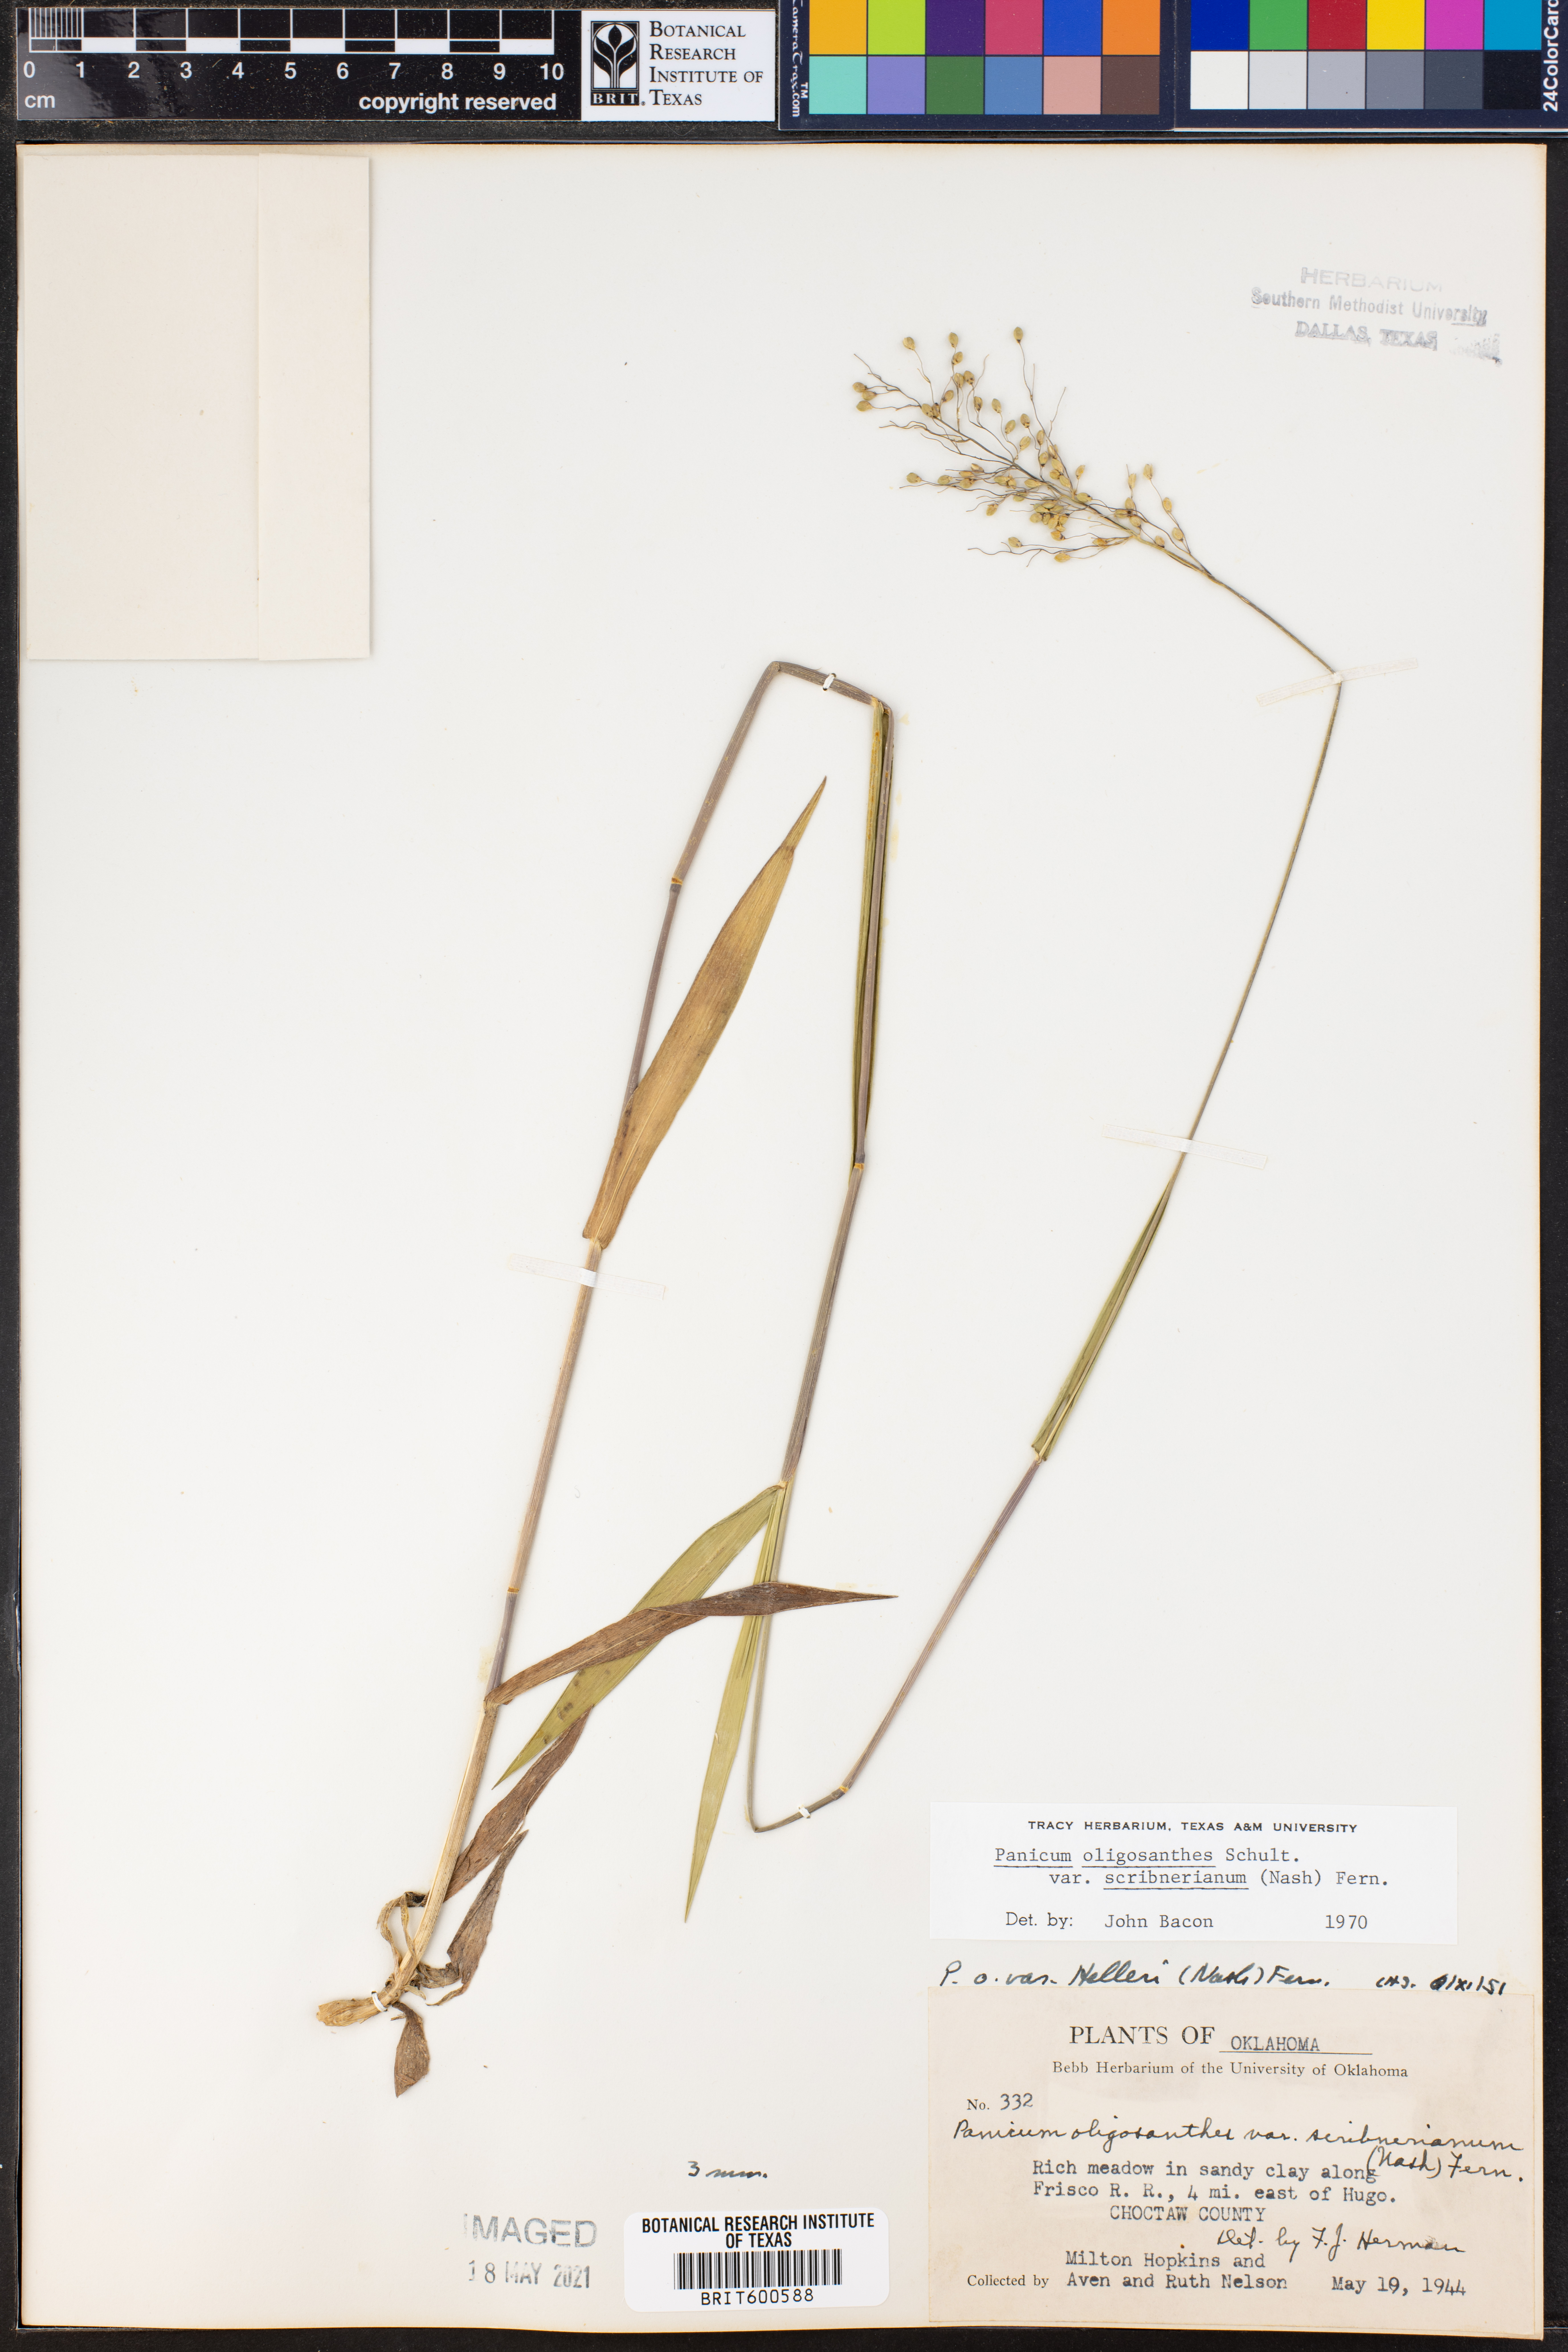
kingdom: Plantae
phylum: Tracheophyta
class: Liliopsida
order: Poales
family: Poaceae
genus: Dichanthelium
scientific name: Dichanthelium scribnerianum
